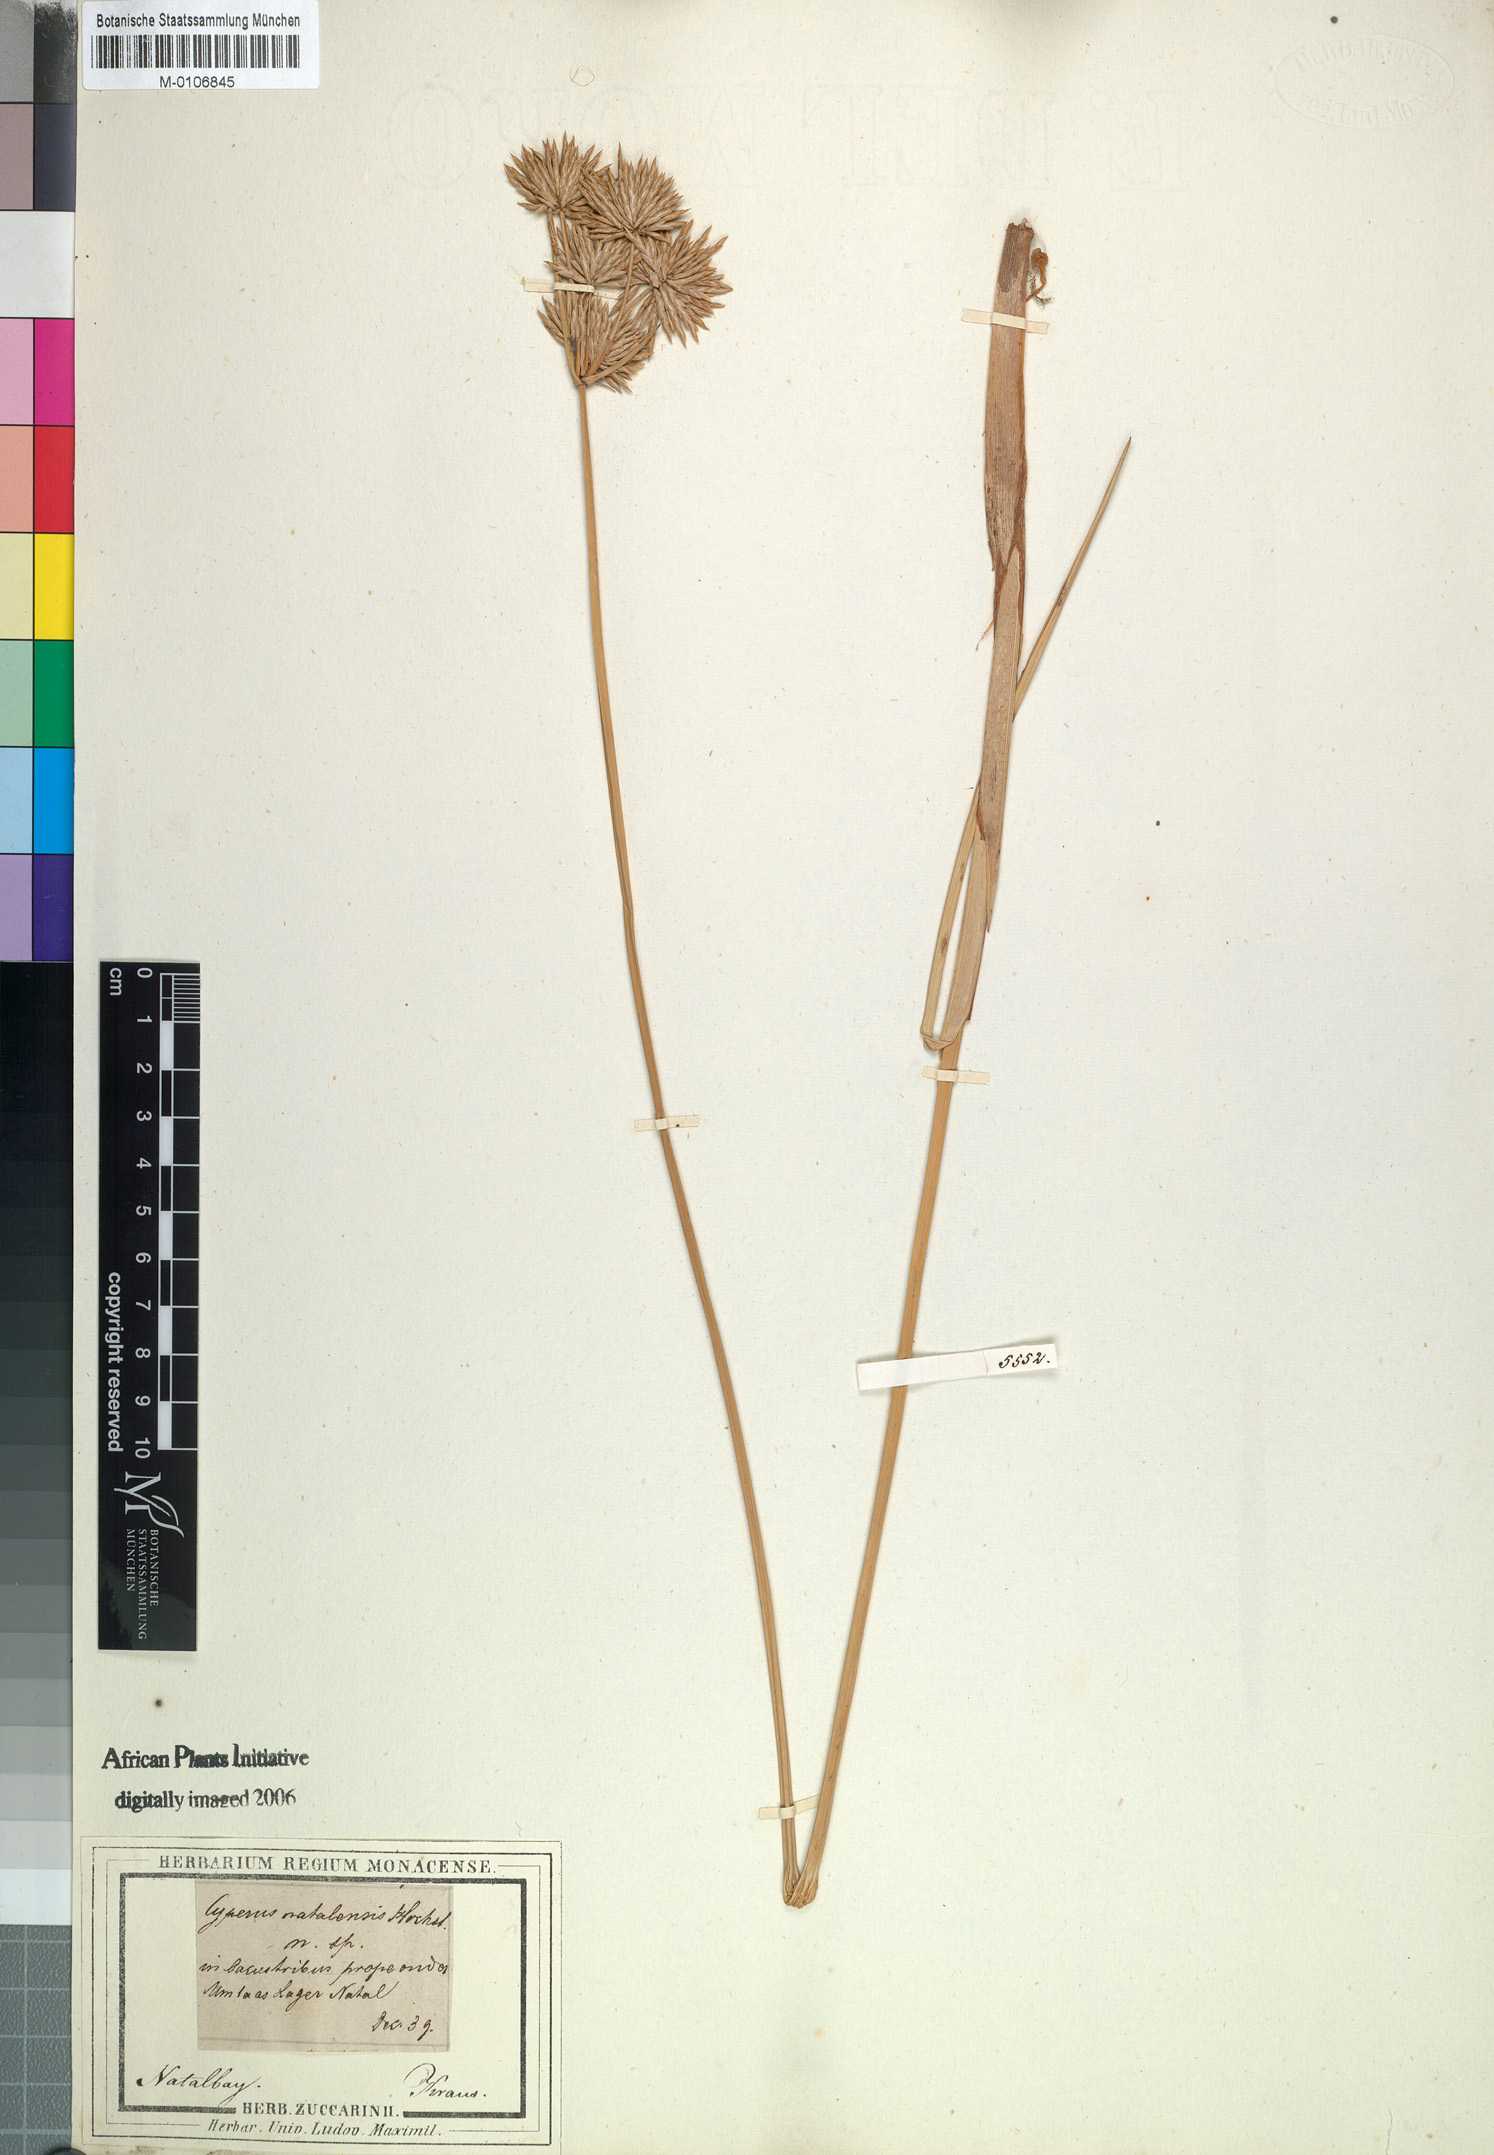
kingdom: Plantae
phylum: Tracheophyta
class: Liliopsida
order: Poales
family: Cyperaceae
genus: Cyperus
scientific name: Cyperus natalensis
